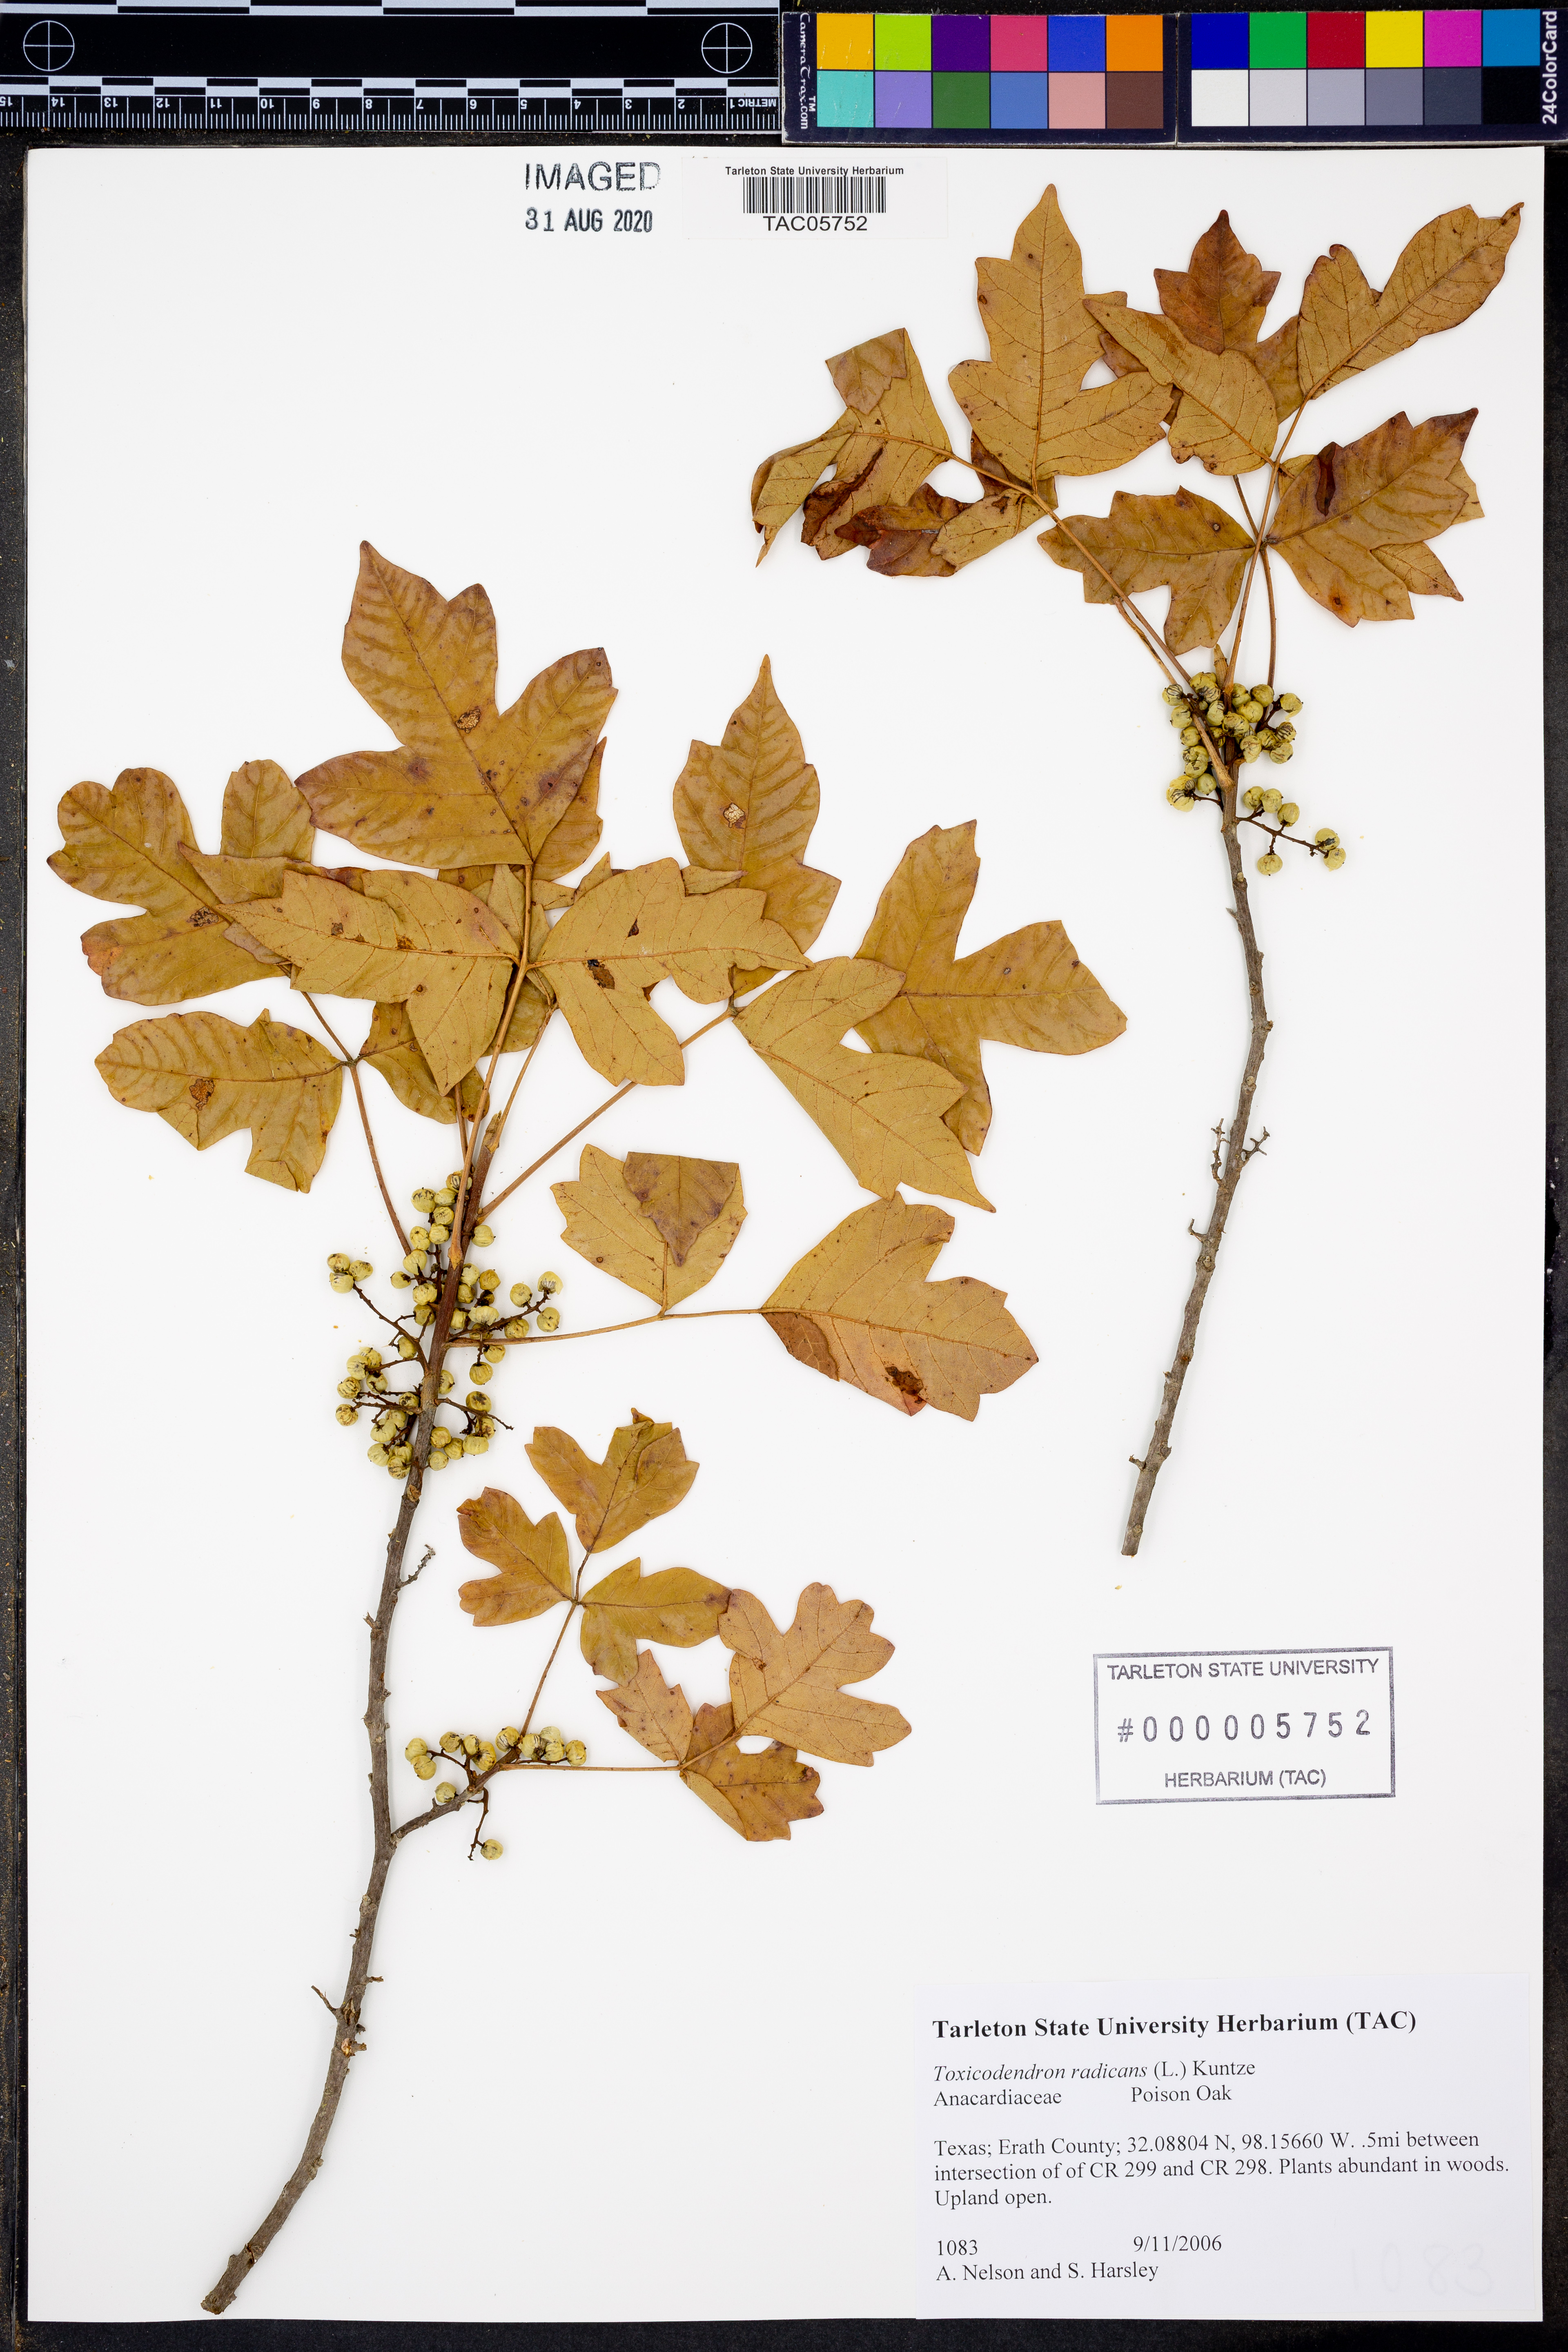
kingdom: Plantae
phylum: Tracheophyta
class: Magnoliopsida
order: Sapindales
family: Anacardiaceae
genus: Toxicodendron
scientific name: Toxicodendron radicans
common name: Poison ivy
